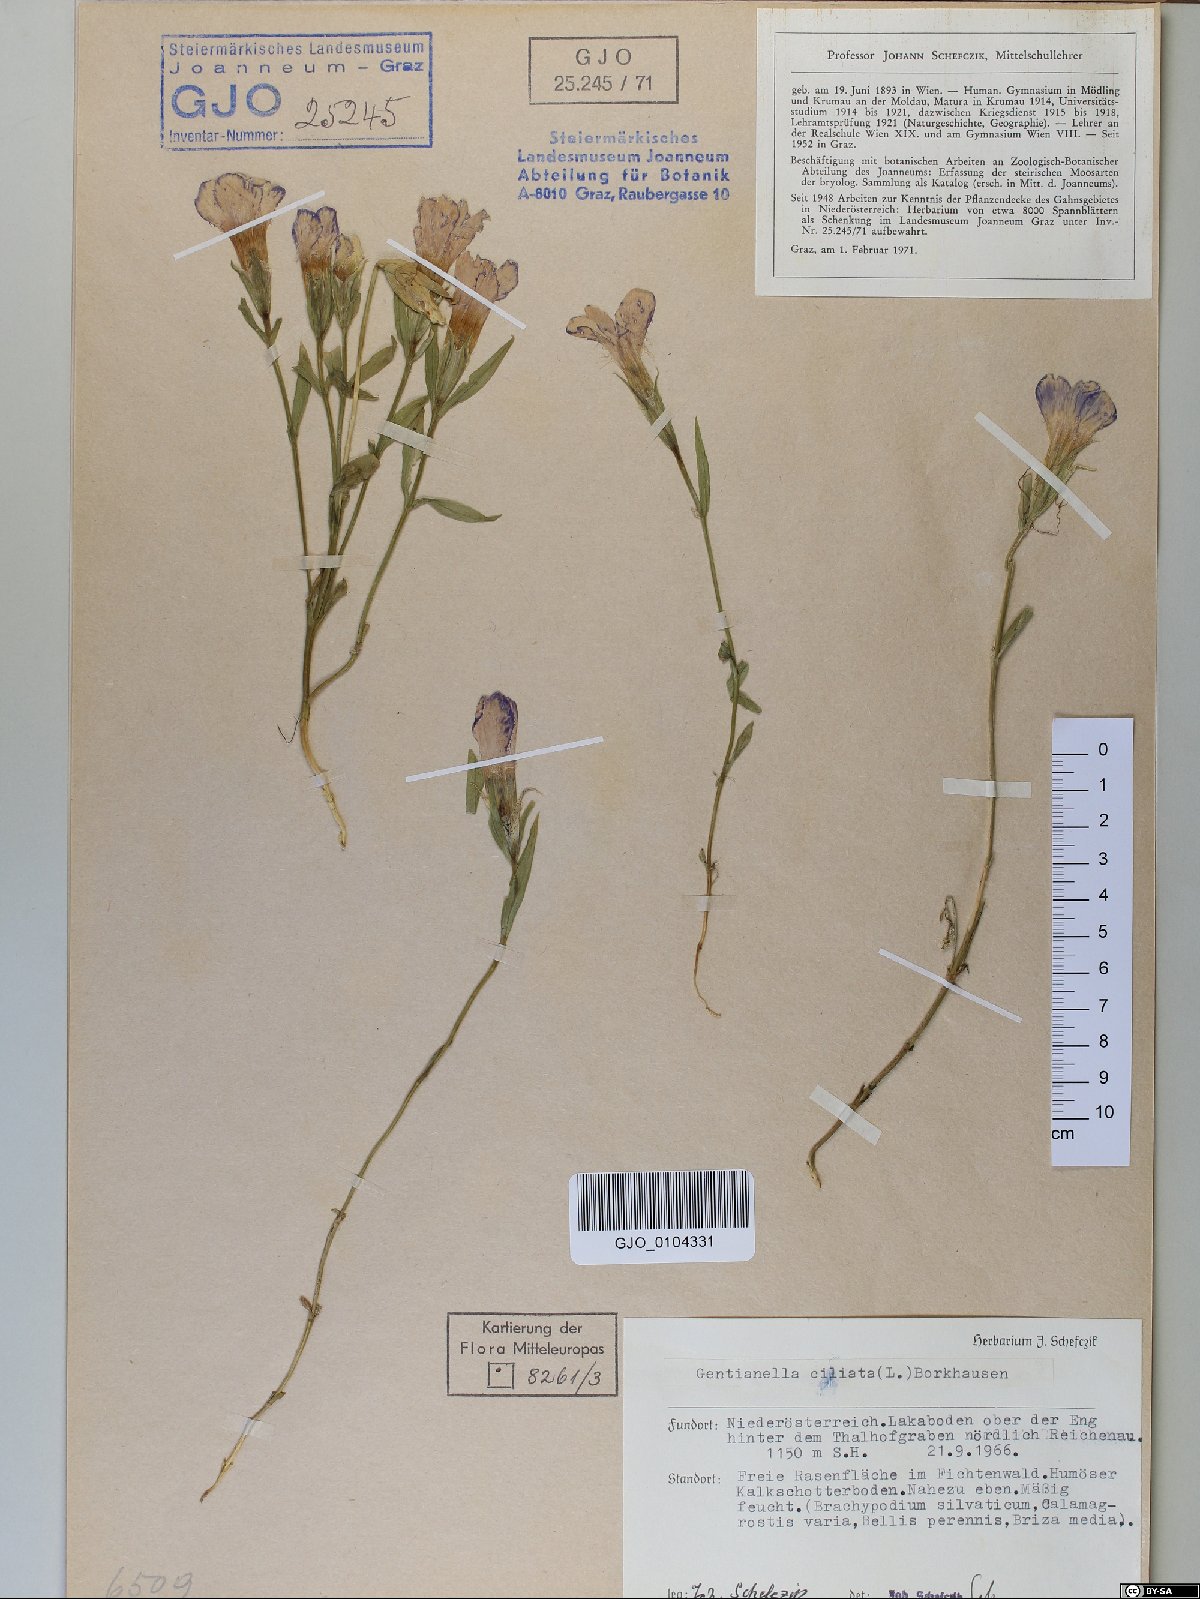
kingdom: Plantae
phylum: Tracheophyta
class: Magnoliopsida
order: Gentianales
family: Gentianaceae
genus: Gentianopsis
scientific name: Gentianopsis ciliata
